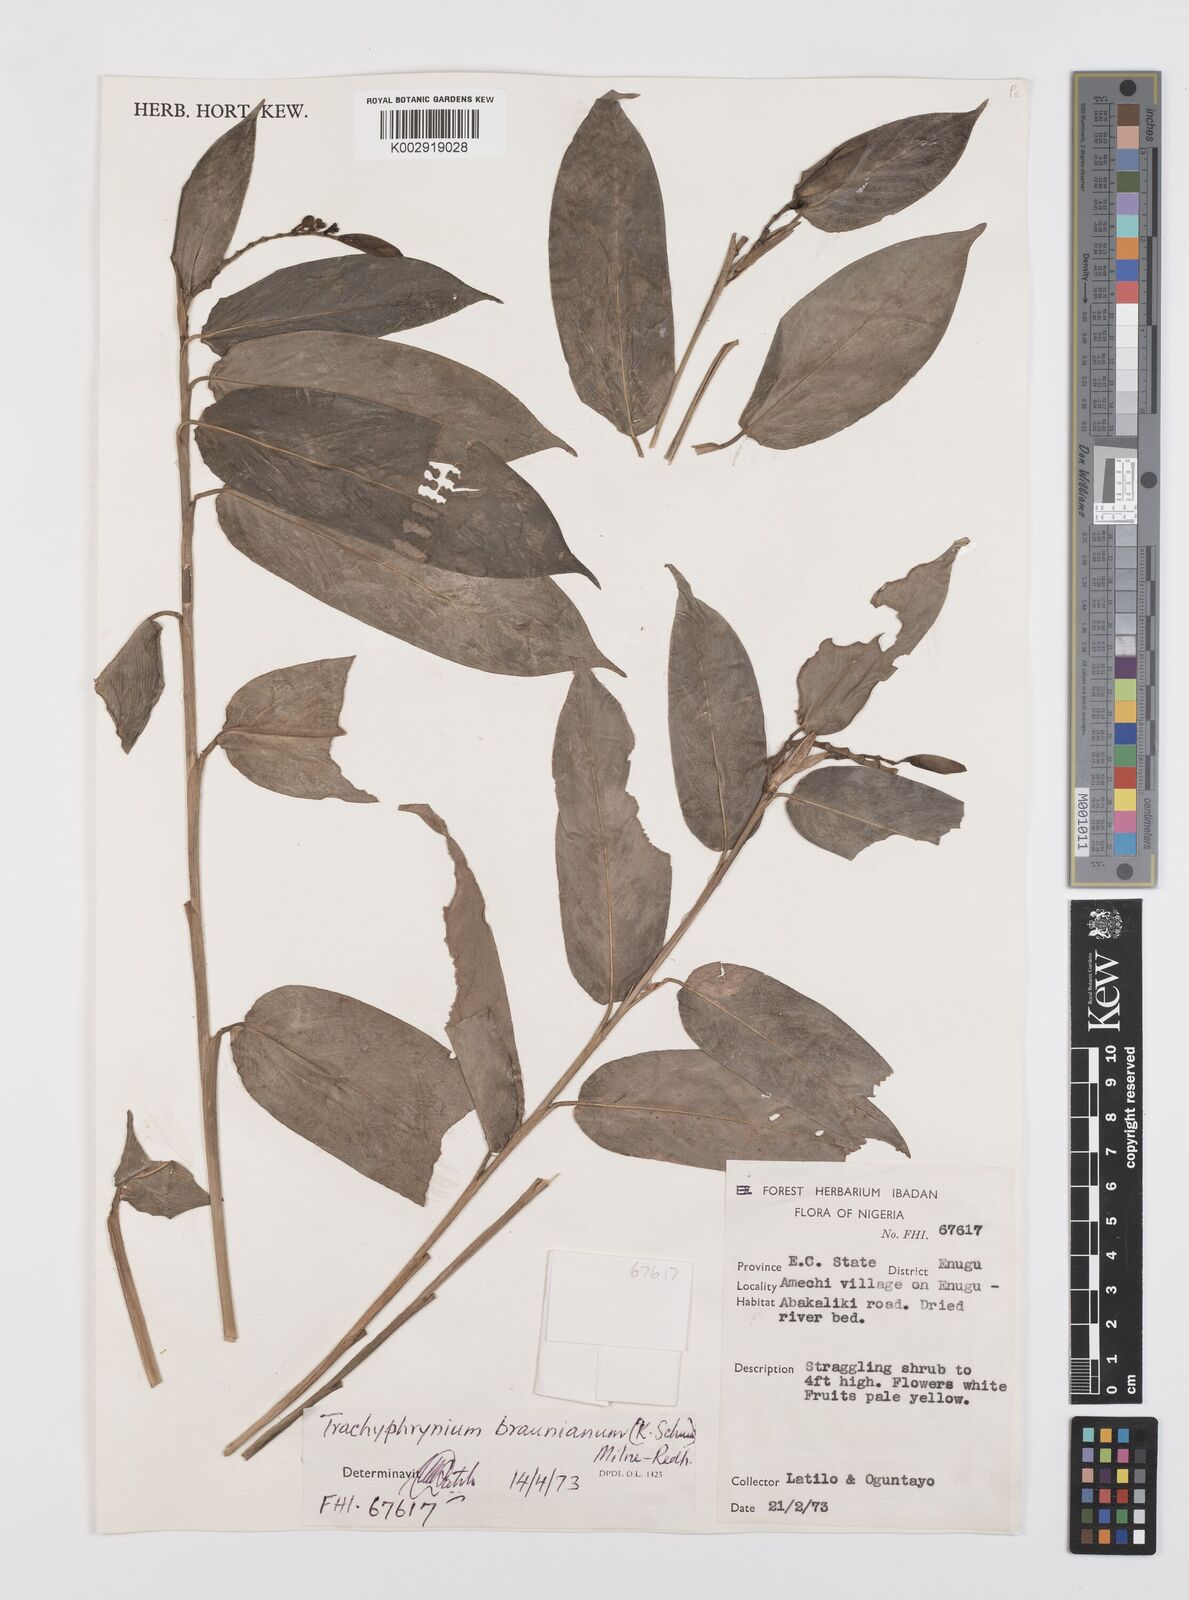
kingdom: Plantae
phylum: Tracheophyta
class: Liliopsida
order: Zingiberales
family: Marantaceae
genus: Trachyphrynium
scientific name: Trachyphrynium braunianum
